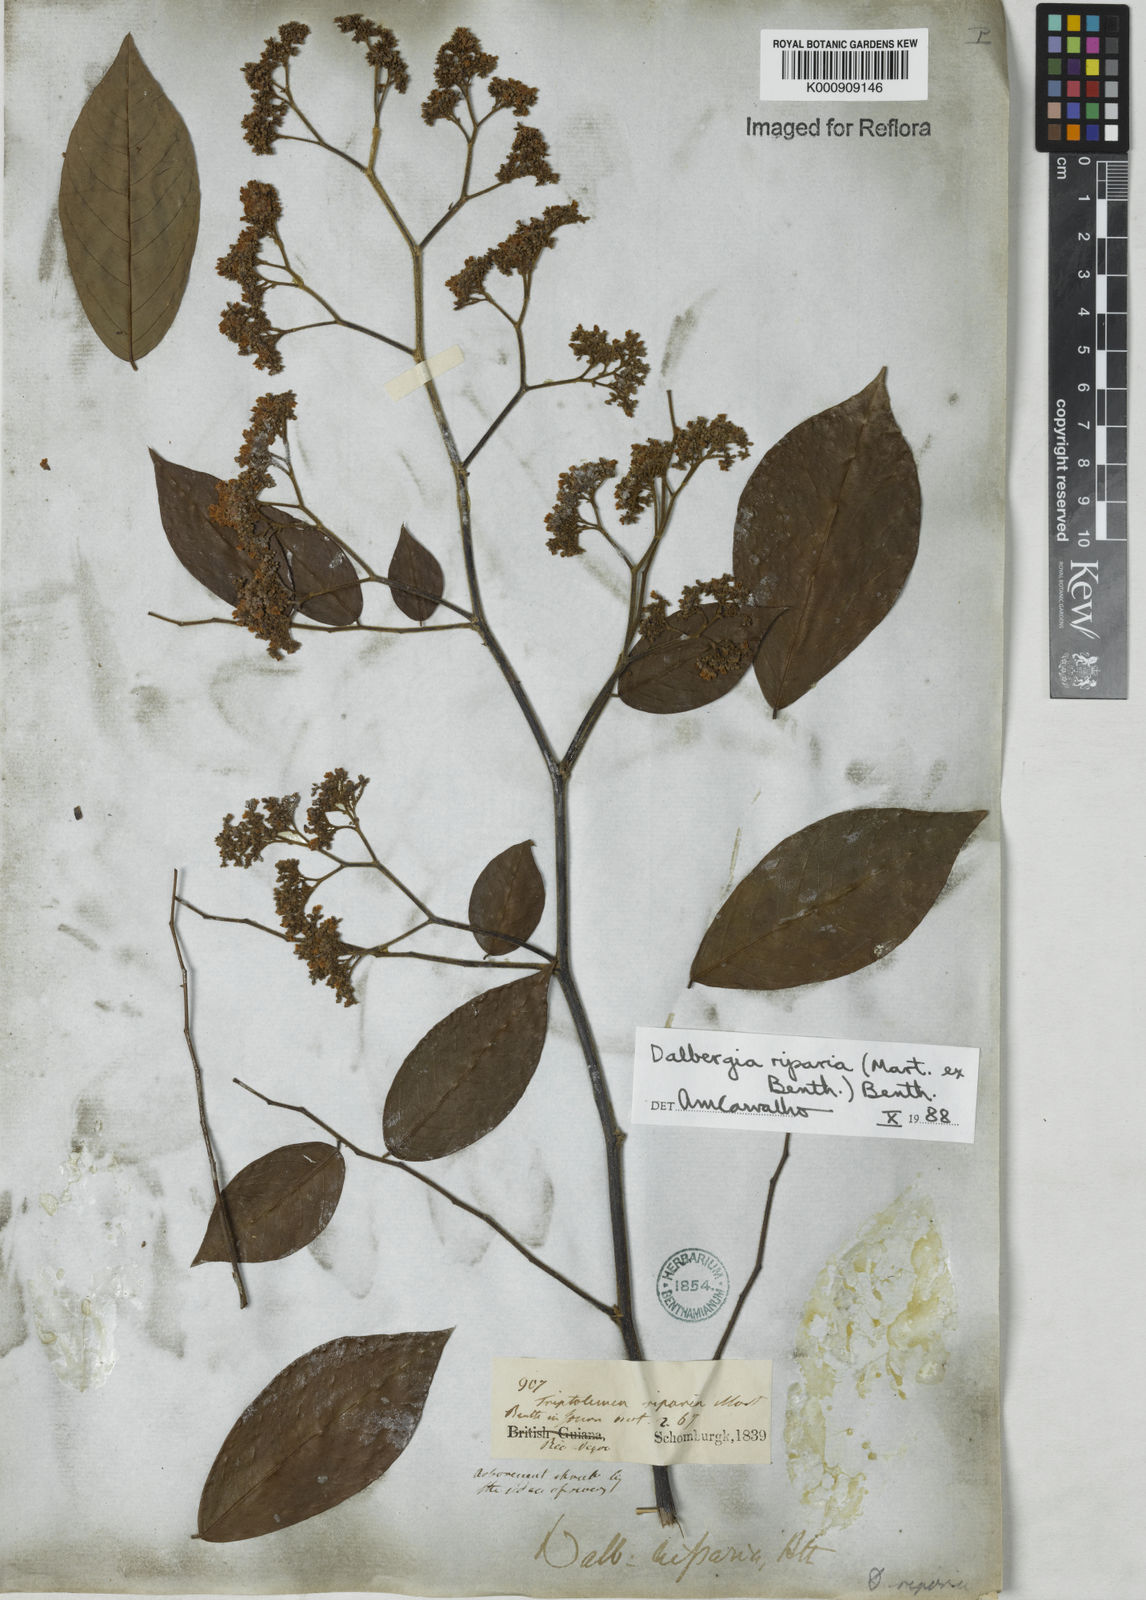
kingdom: Plantae
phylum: Tracheophyta
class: Magnoliopsida
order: Fabales
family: Fabaceae
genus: Dalbergia
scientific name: Dalbergia riparia
